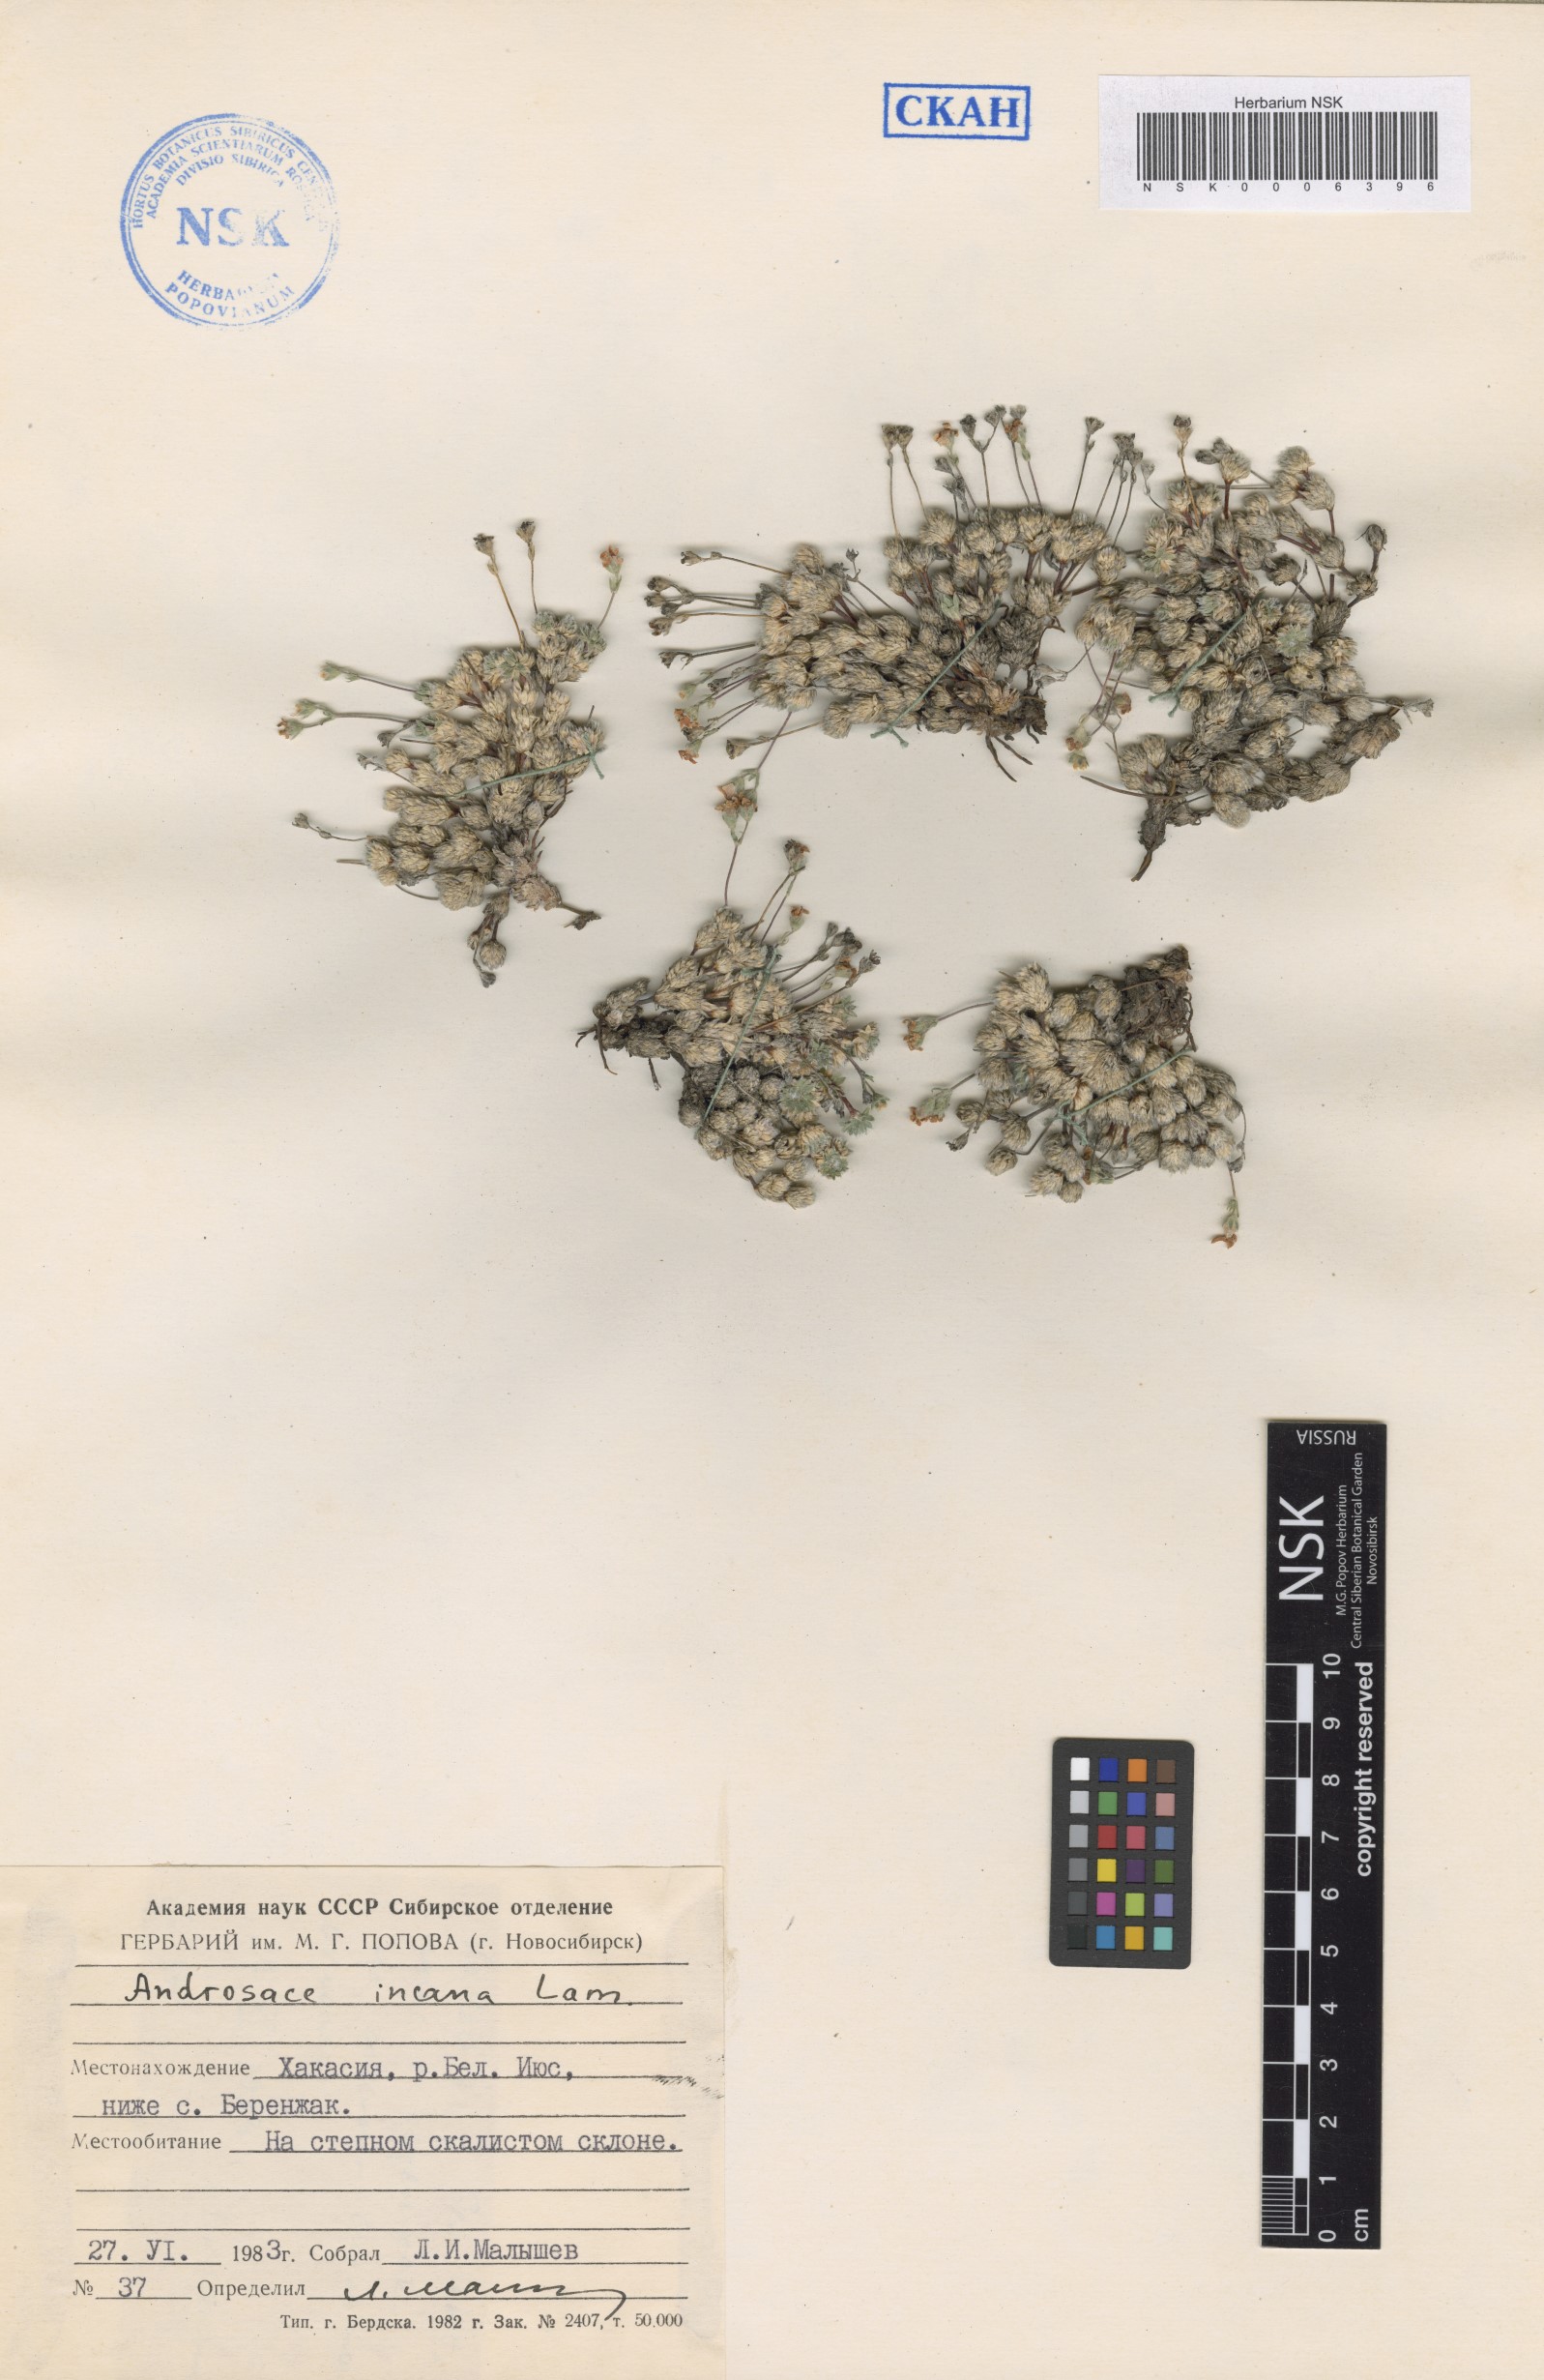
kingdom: Plantae
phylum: Tracheophyta
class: Magnoliopsida
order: Ericales
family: Primulaceae
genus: Androsace
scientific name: Androsace incana
